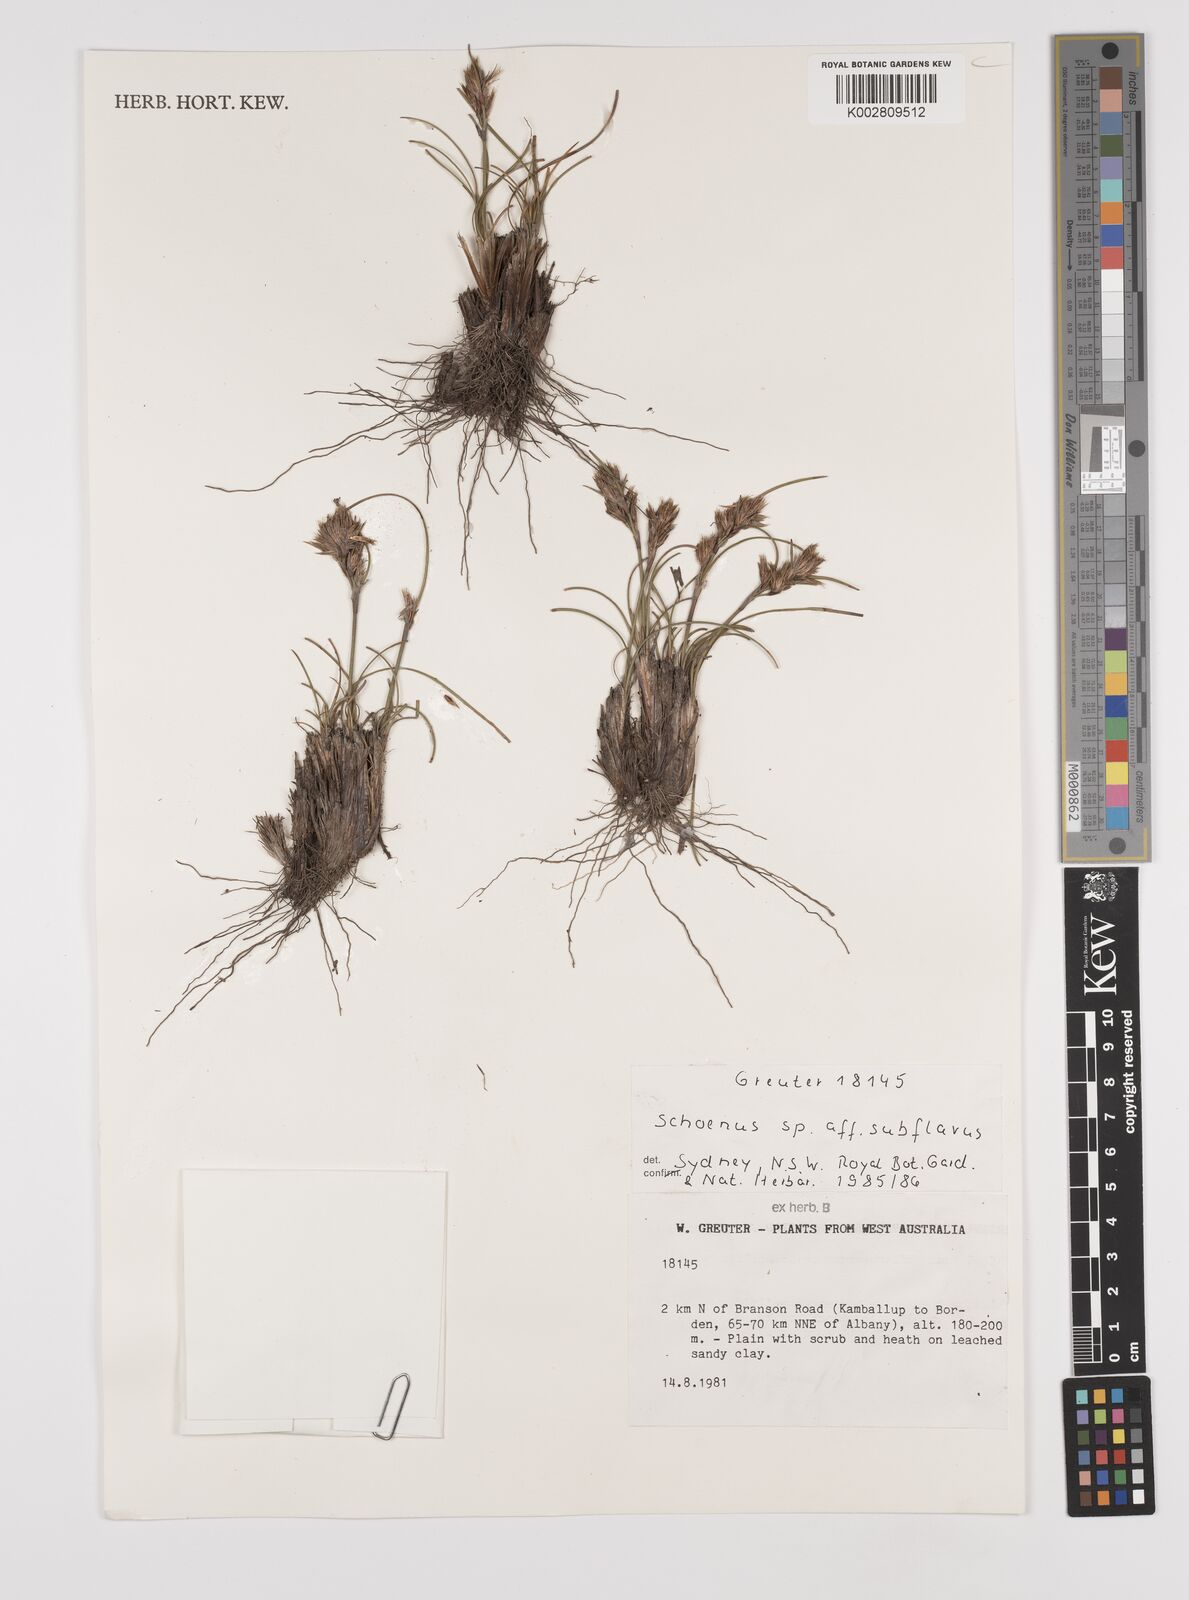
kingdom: Plantae
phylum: Tracheophyta
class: Liliopsida
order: Poales
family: Cyperaceae
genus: Schoenus
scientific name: Schoenus subflavus
